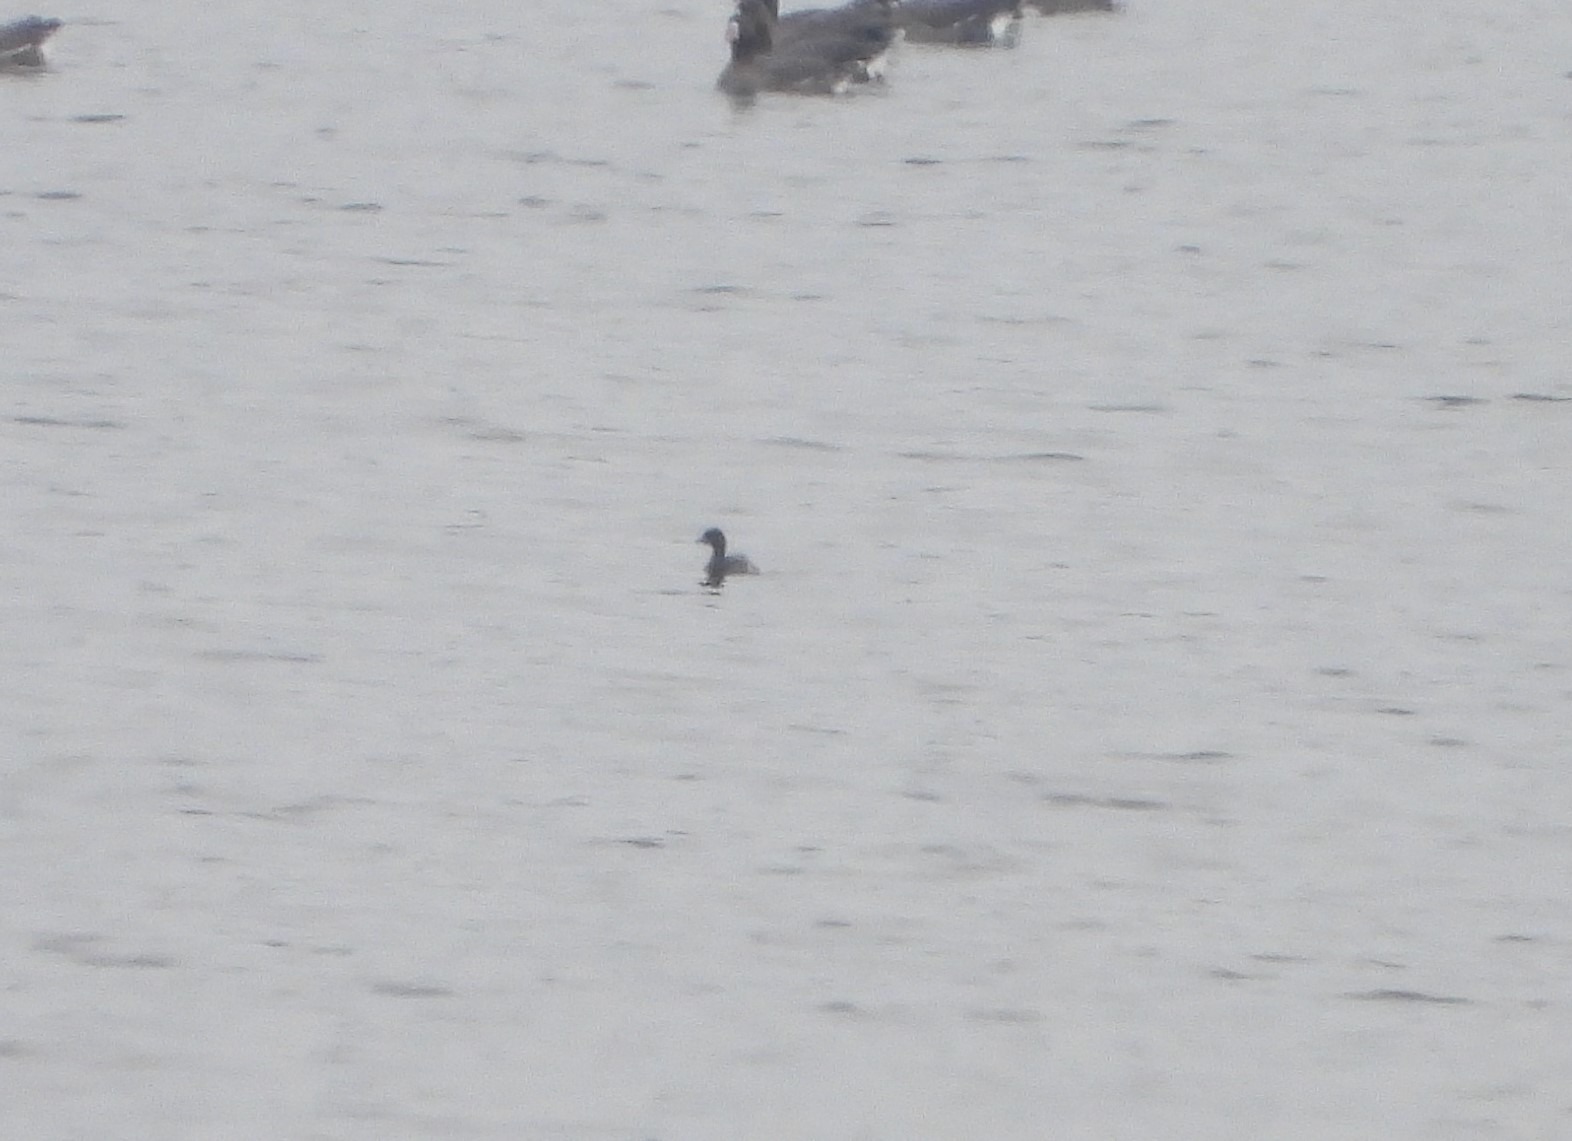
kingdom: Animalia
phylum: Chordata
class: Aves
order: Podicipediformes
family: Podicipedidae
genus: Tachybaptus
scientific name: Tachybaptus ruficollis
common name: Lille lappedykker
